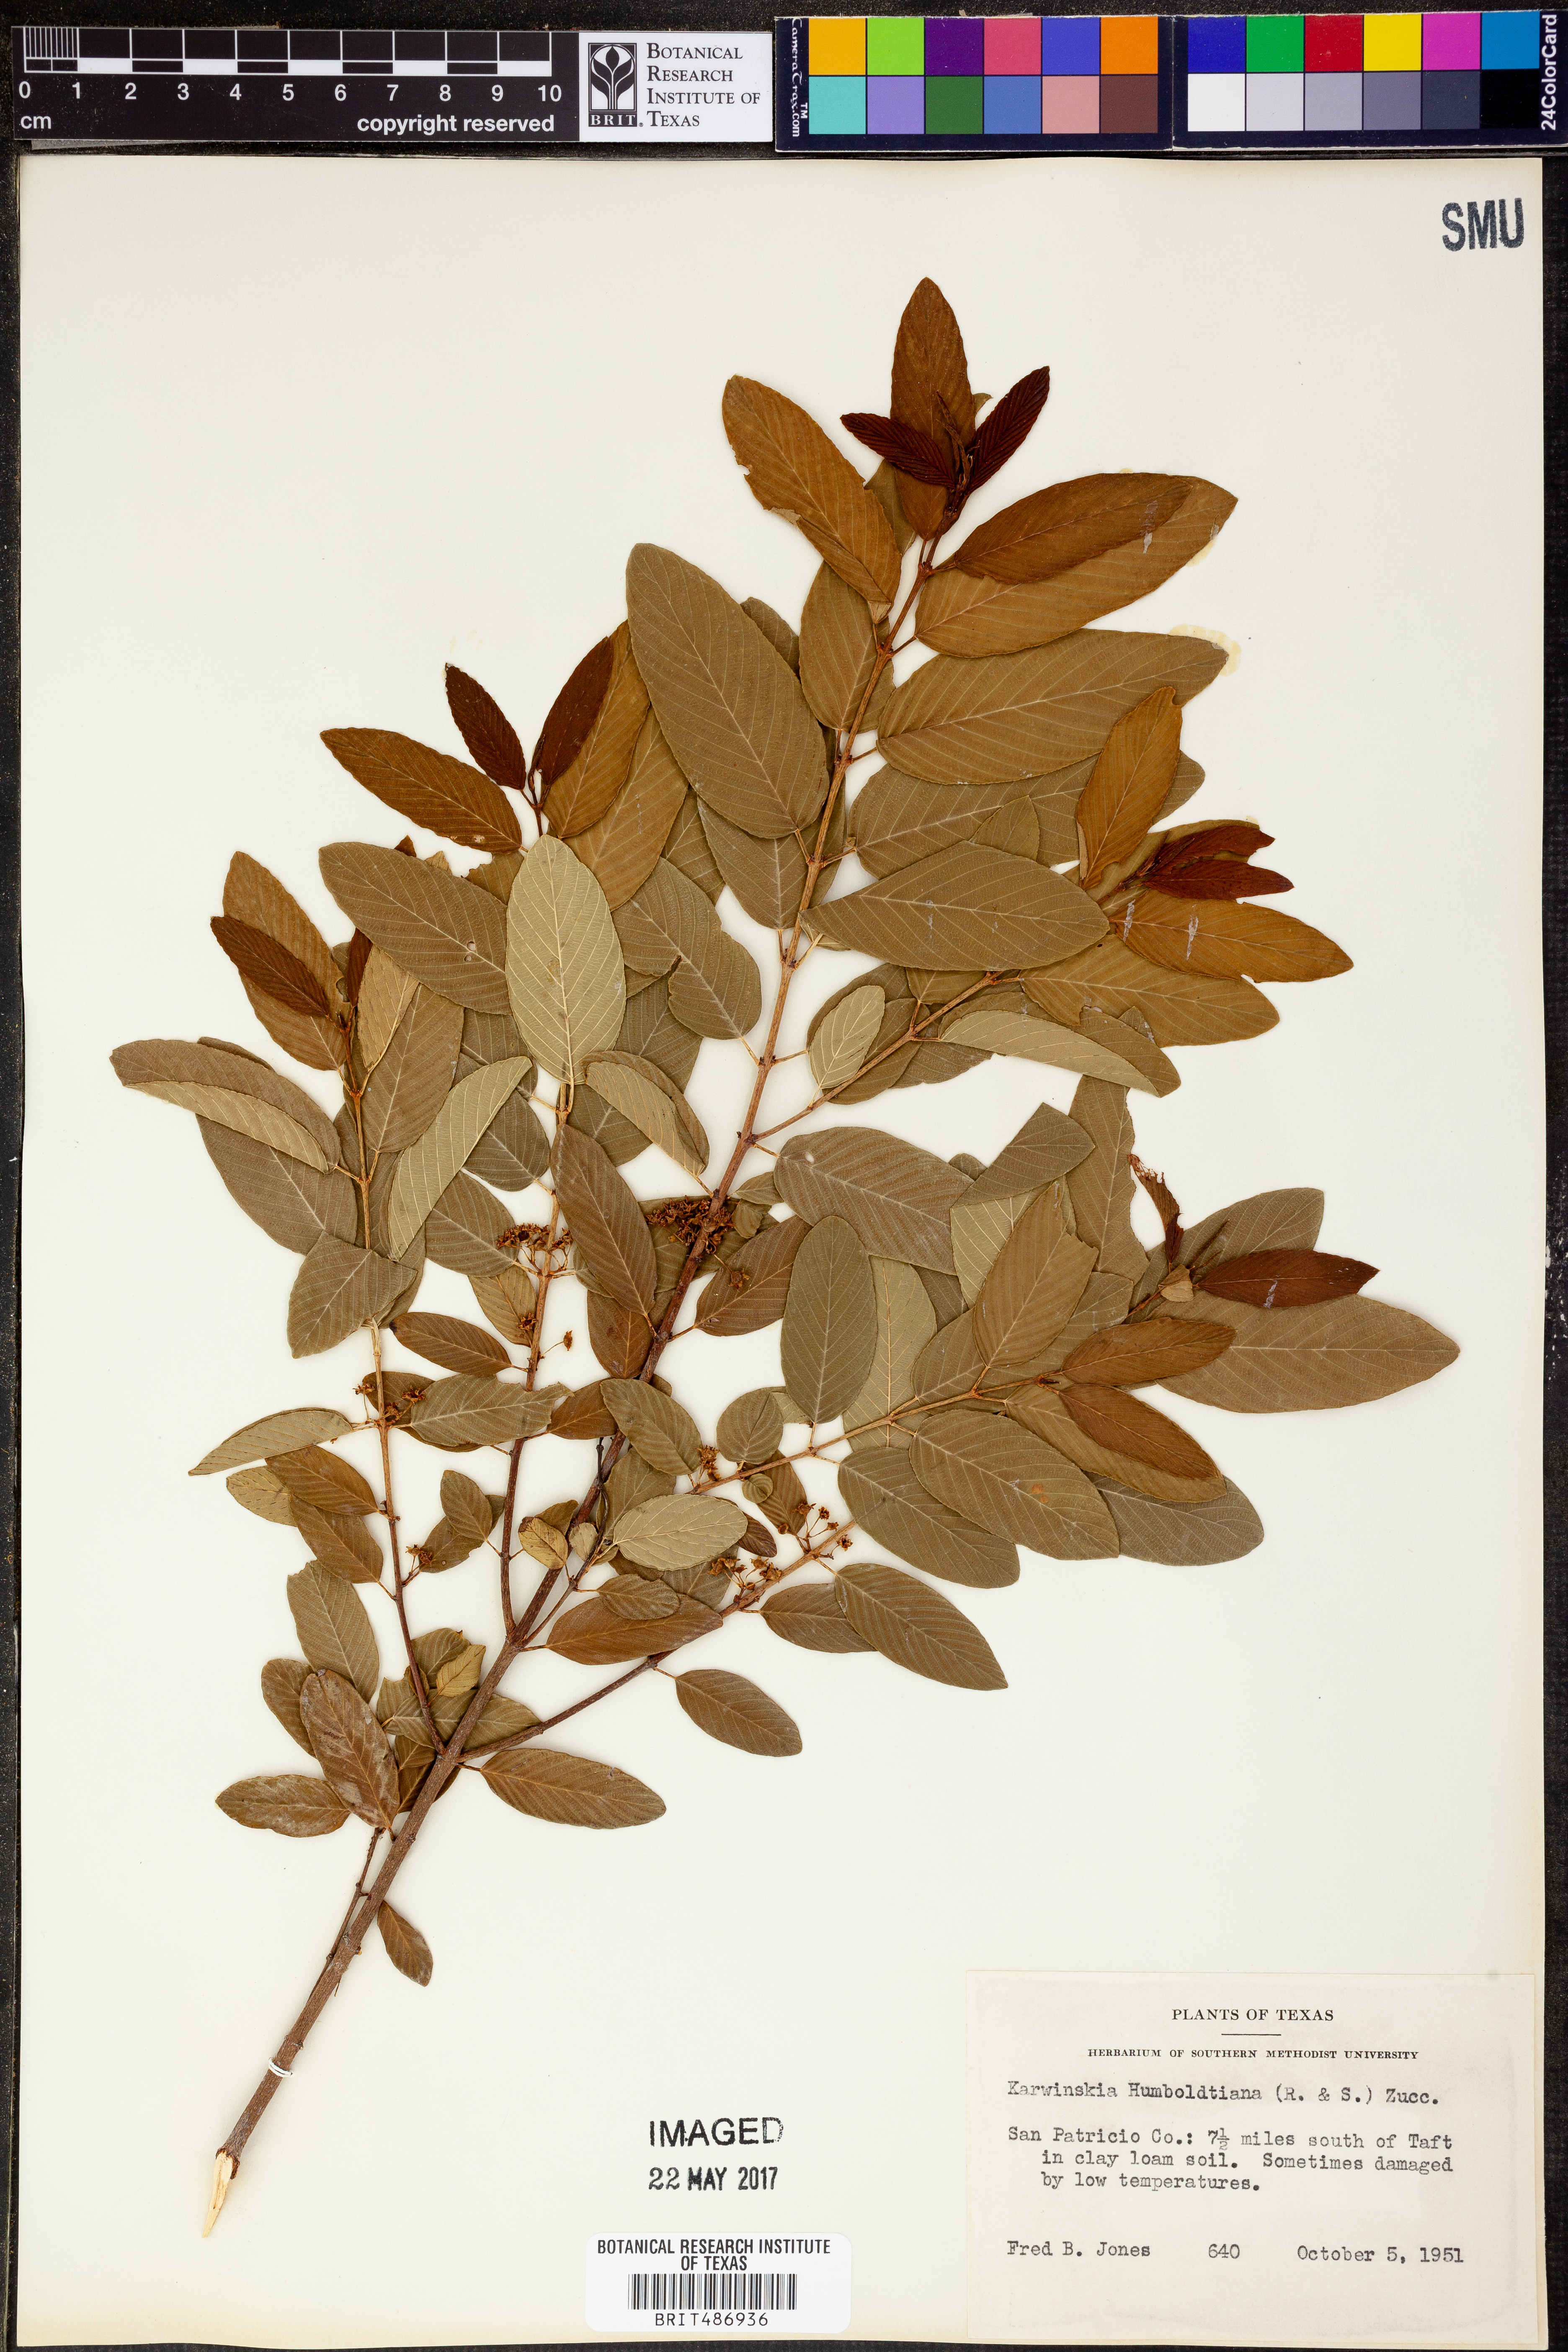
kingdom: Plantae
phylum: Tracheophyta
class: Magnoliopsida
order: Rosales
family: Rhamnaceae
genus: Karwinskia
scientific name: Karwinskia humboldtiana
